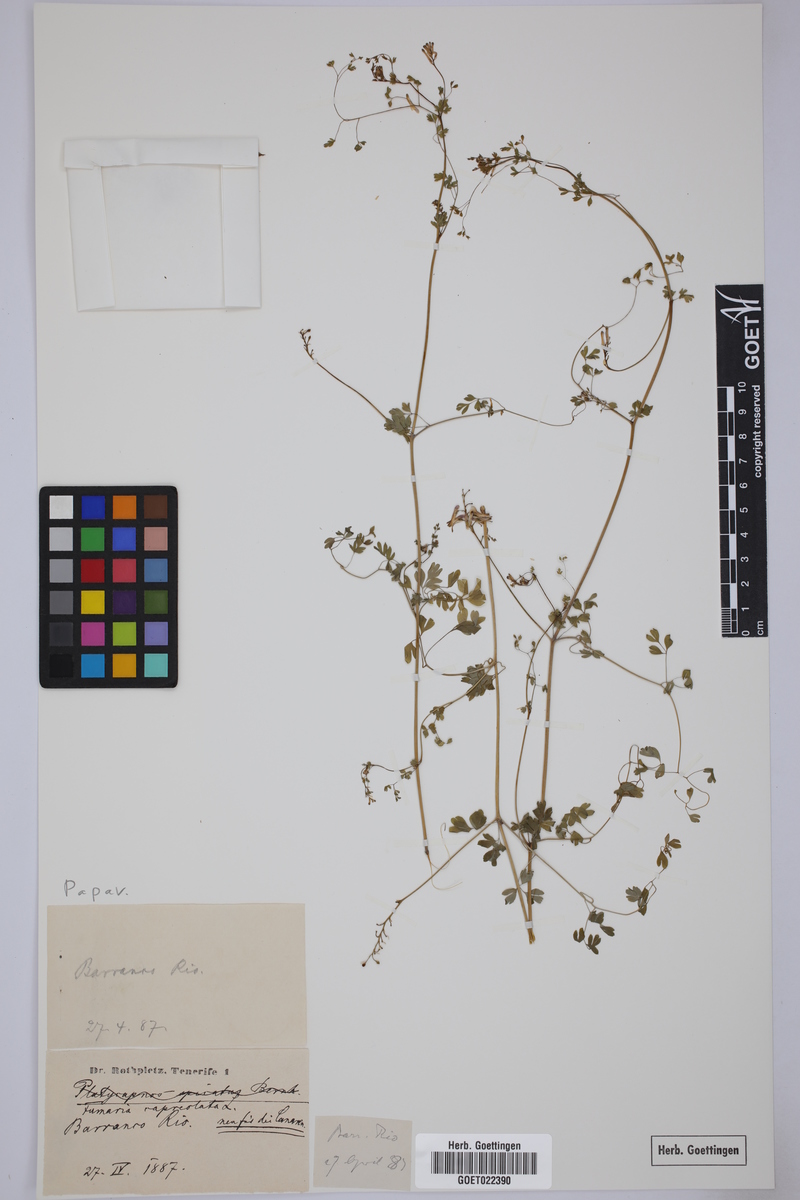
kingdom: Plantae
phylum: Tracheophyta
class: Magnoliopsida
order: Ranunculales
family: Papaveraceae
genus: Fumaria
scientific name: Fumaria capreolata
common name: White ramping-fumitory
